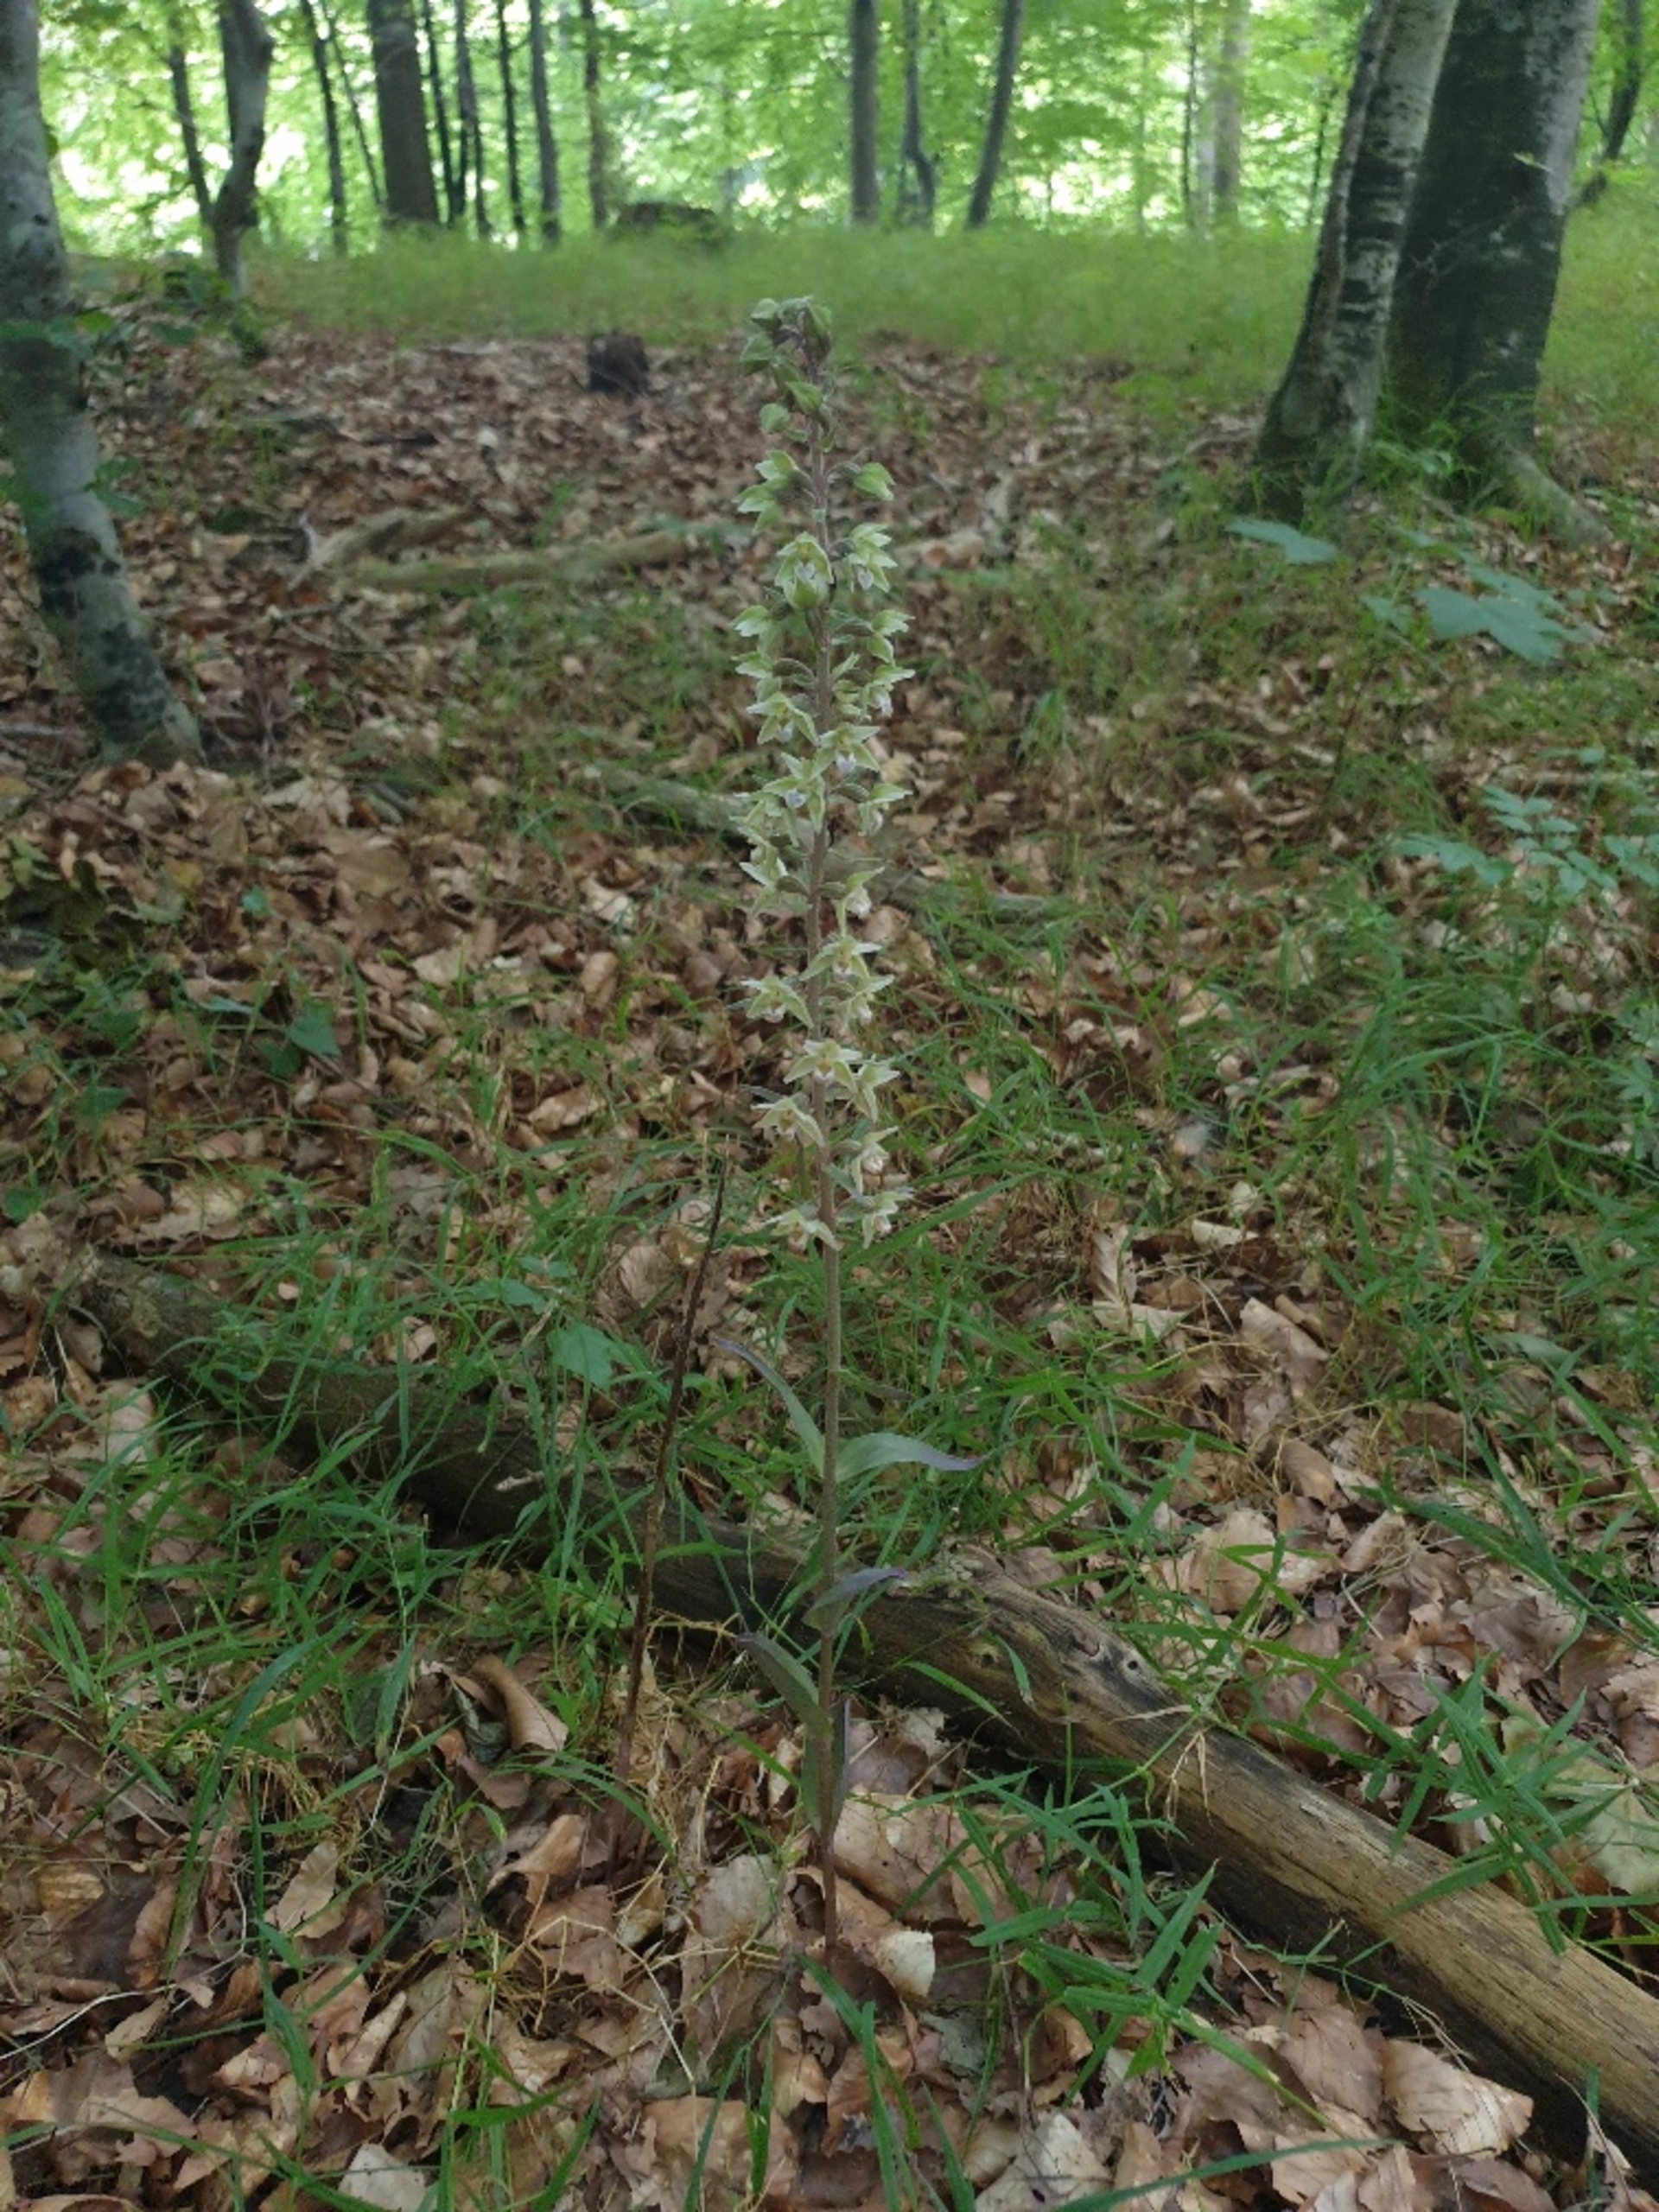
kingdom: Plantae
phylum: Tracheophyta
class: Liliopsida
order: Asparagales
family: Orchidaceae
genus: Epipactis
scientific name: Epipactis purpurata
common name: Tætblomstret hullæbe
